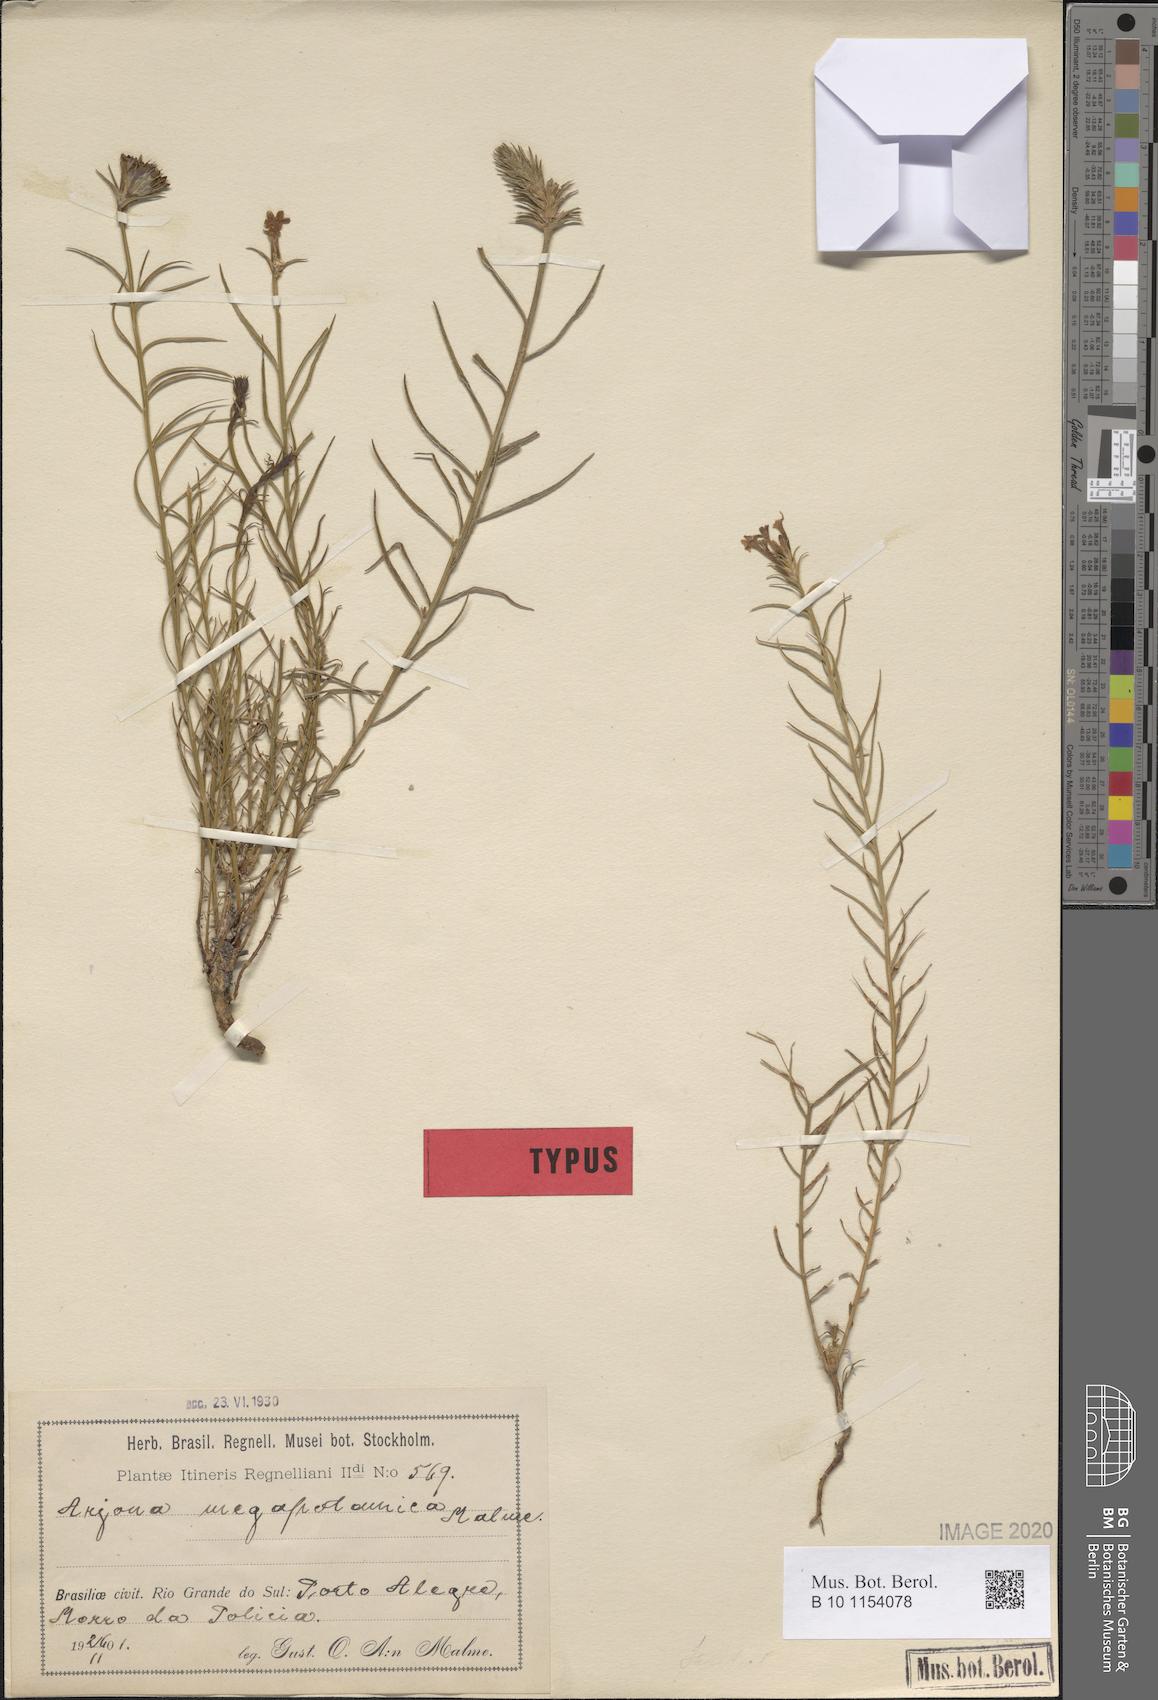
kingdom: Plantae
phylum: Tracheophyta
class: Magnoliopsida
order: Santalales
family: Schoepfiaceae
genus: Arjona
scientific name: Arjona megapotamica
